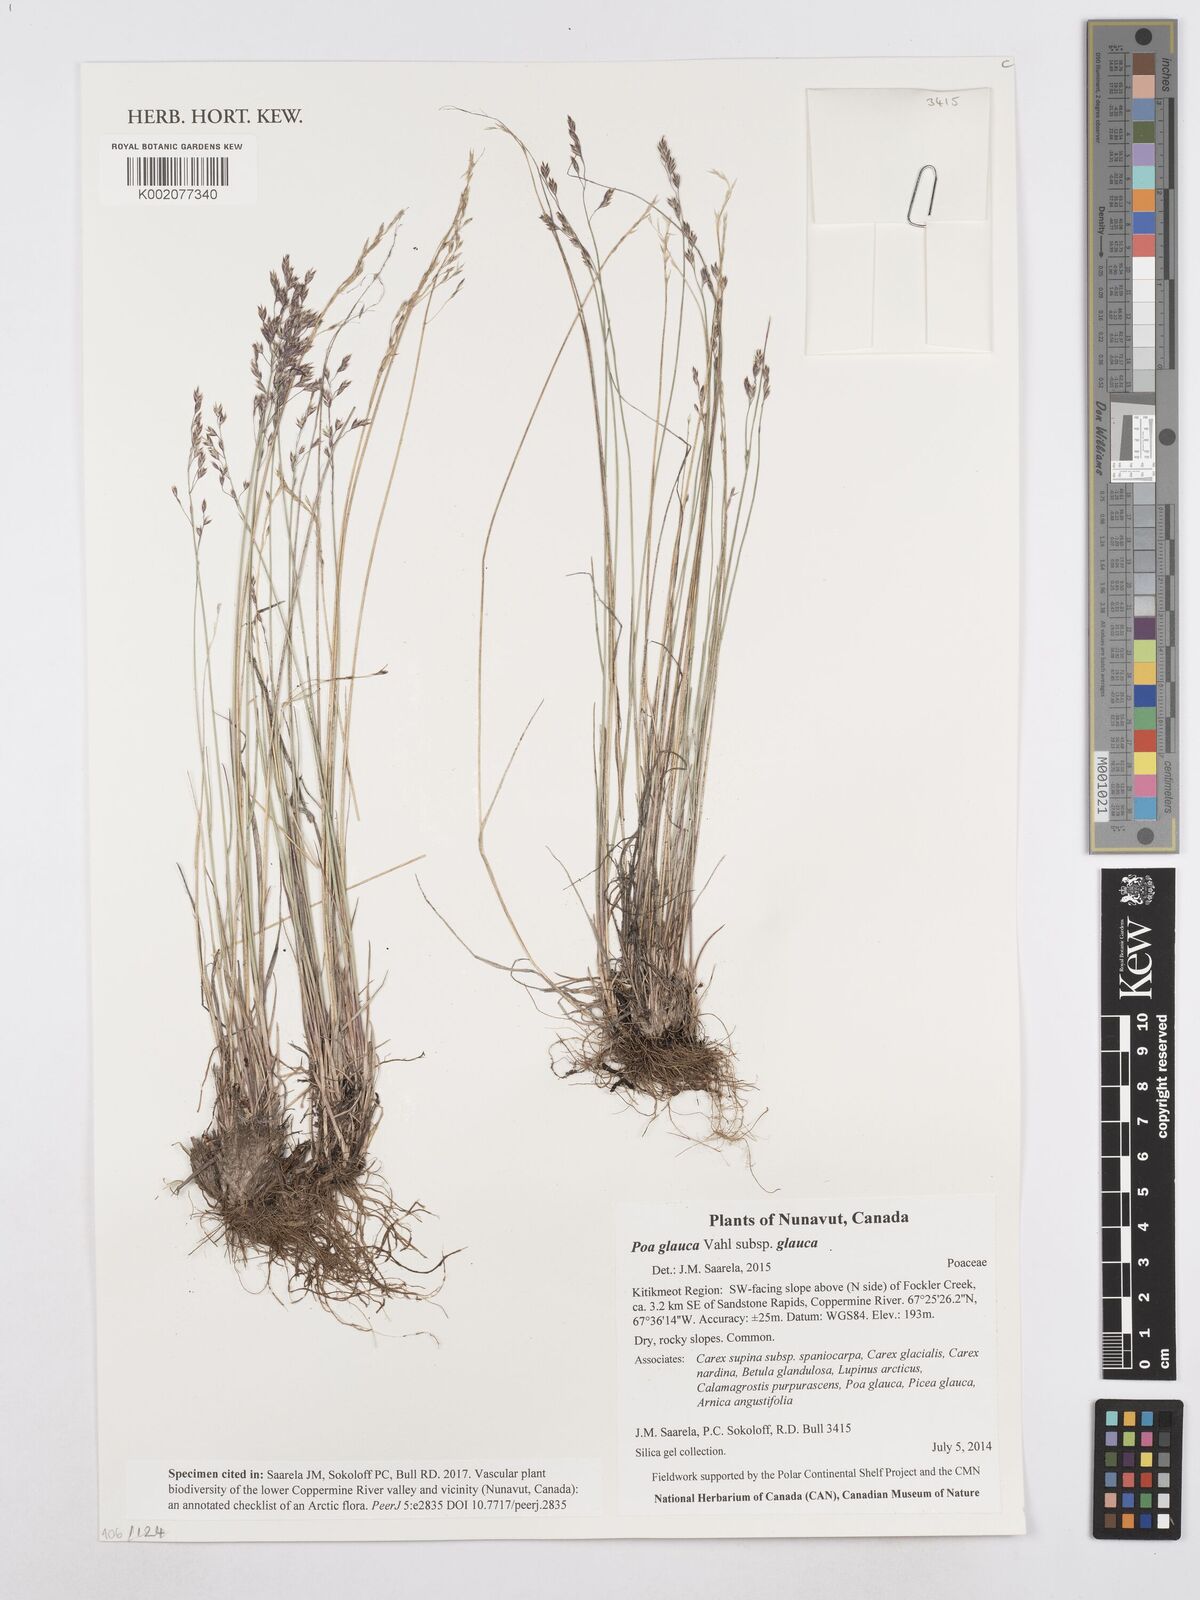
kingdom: Plantae
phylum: Tracheophyta
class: Liliopsida
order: Poales
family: Poaceae
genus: Poa
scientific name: Poa glauca
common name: Glaucous bluegrass
